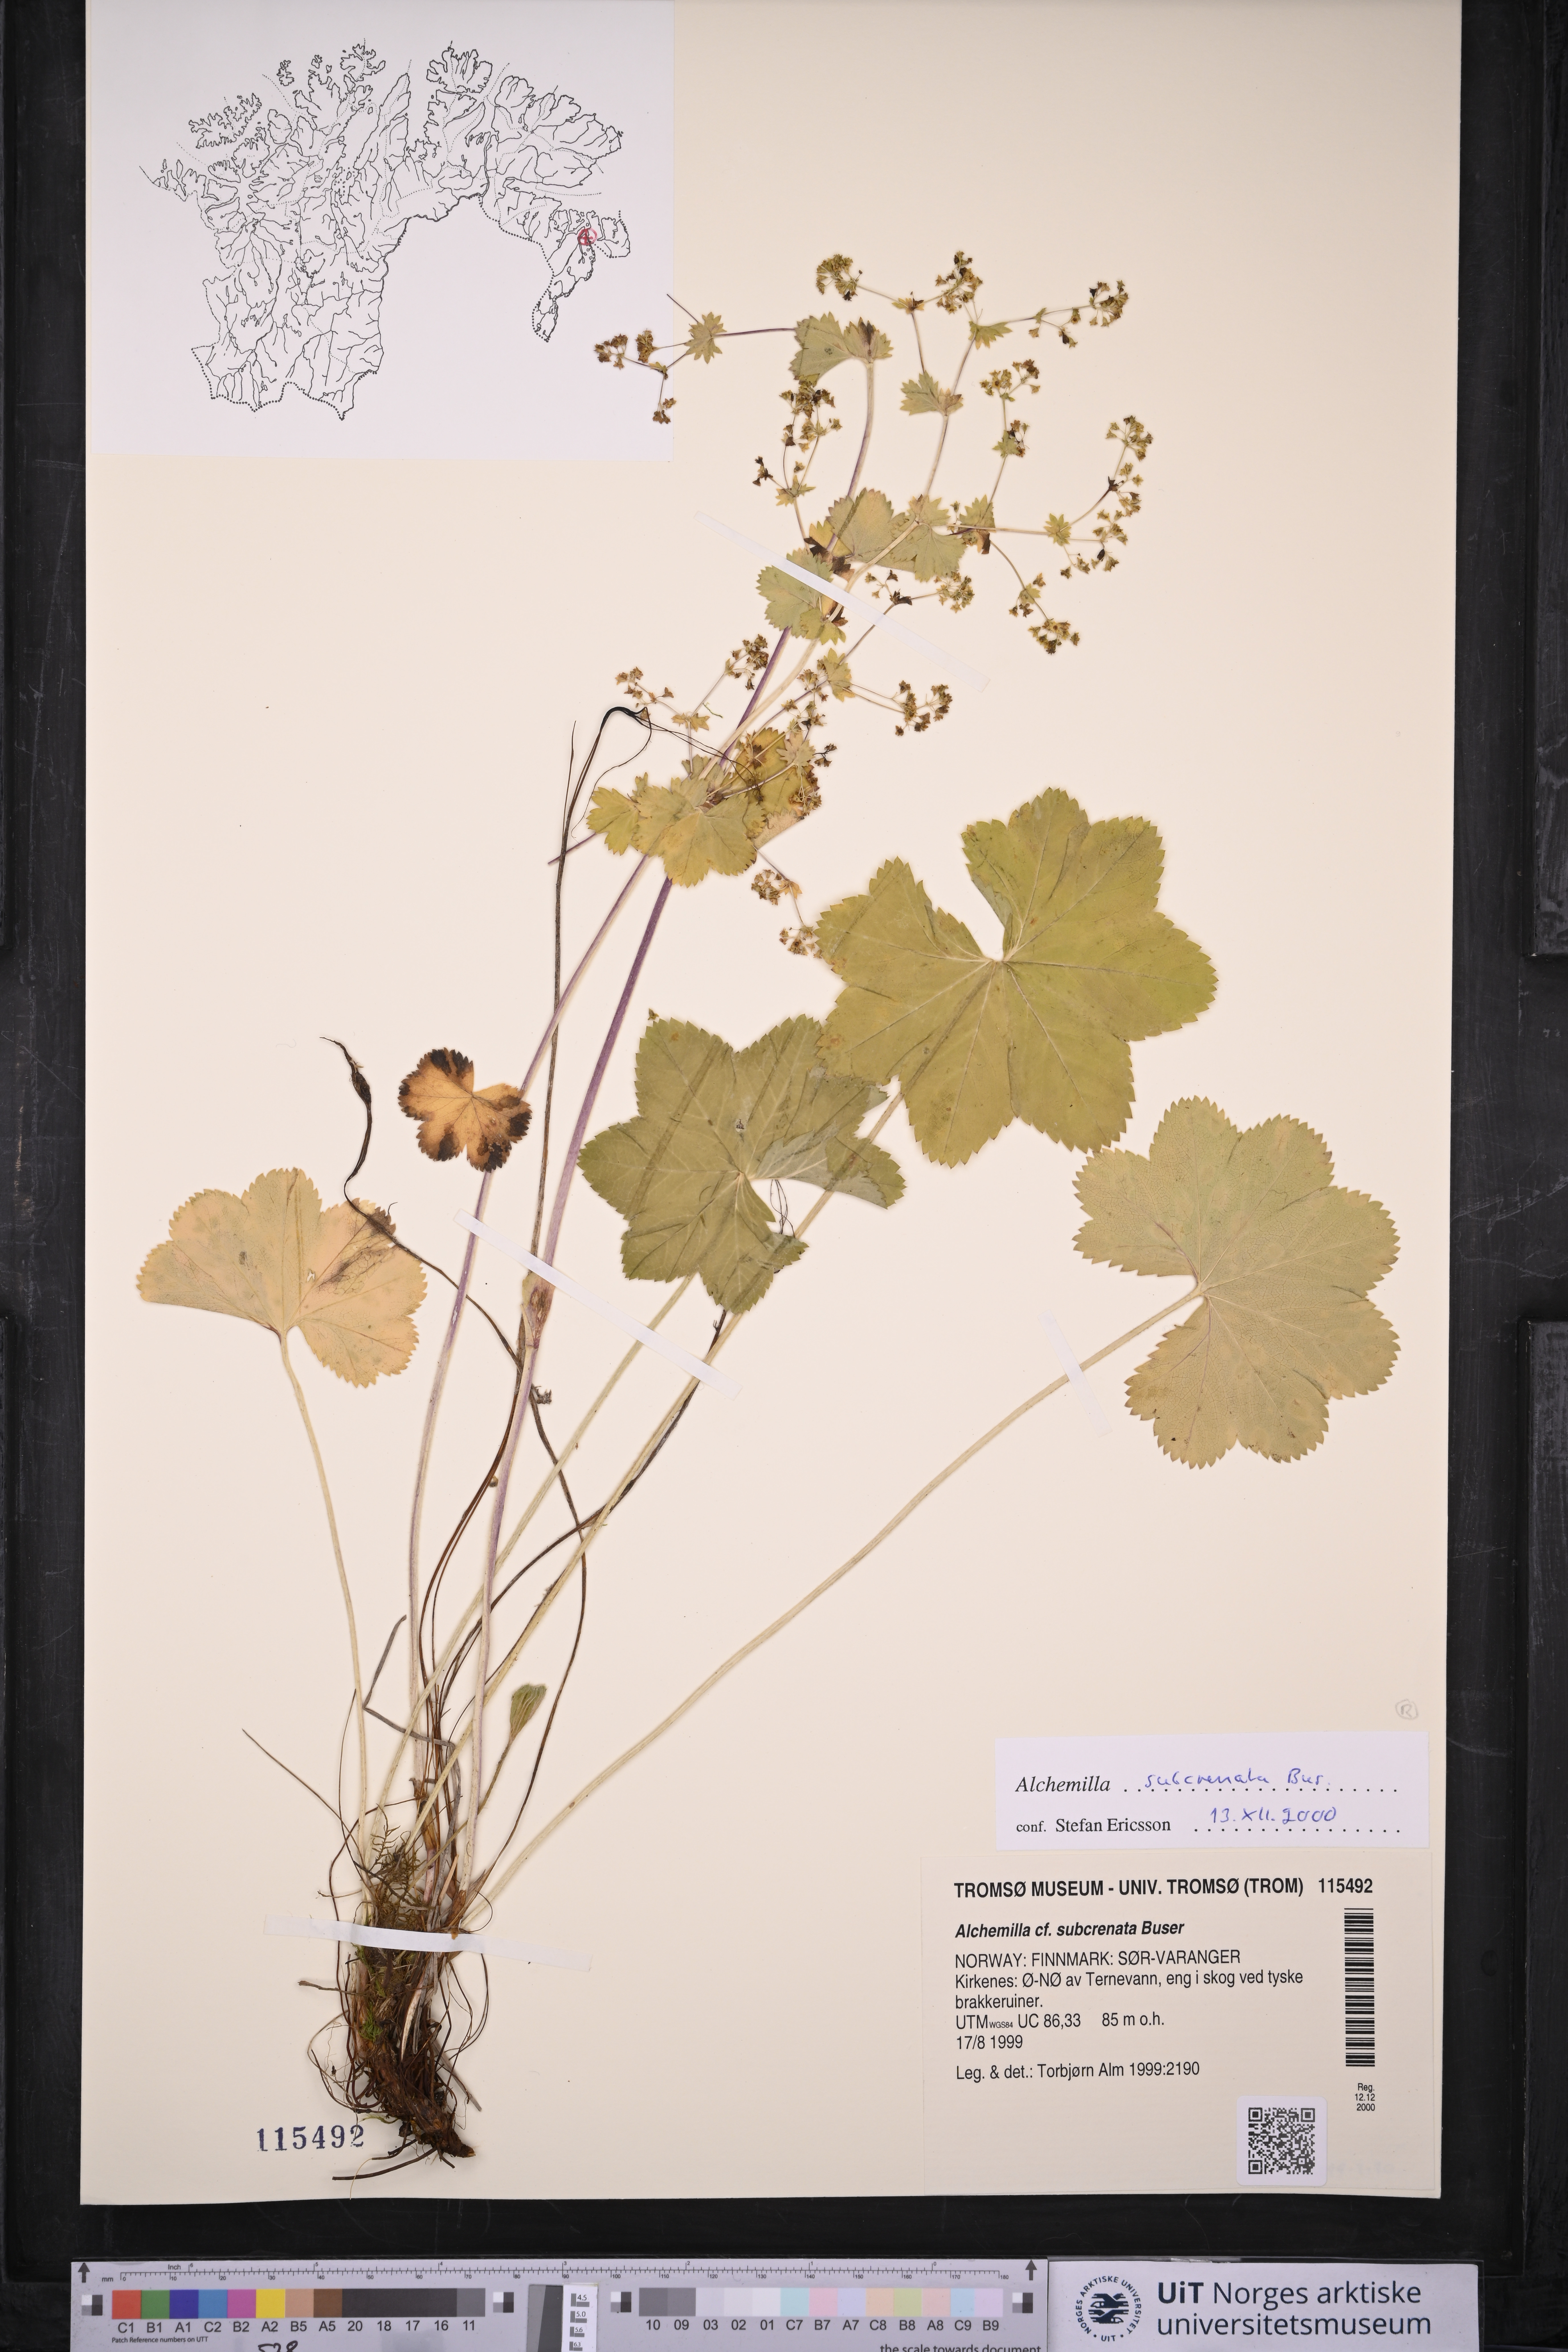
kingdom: Plantae
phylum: Tracheophyta
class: Magnoliopsida
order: Rosales
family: Rosaceae
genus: Alchemilla
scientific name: Alchemilla subcrenata
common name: Broadtooth lady's mantle
